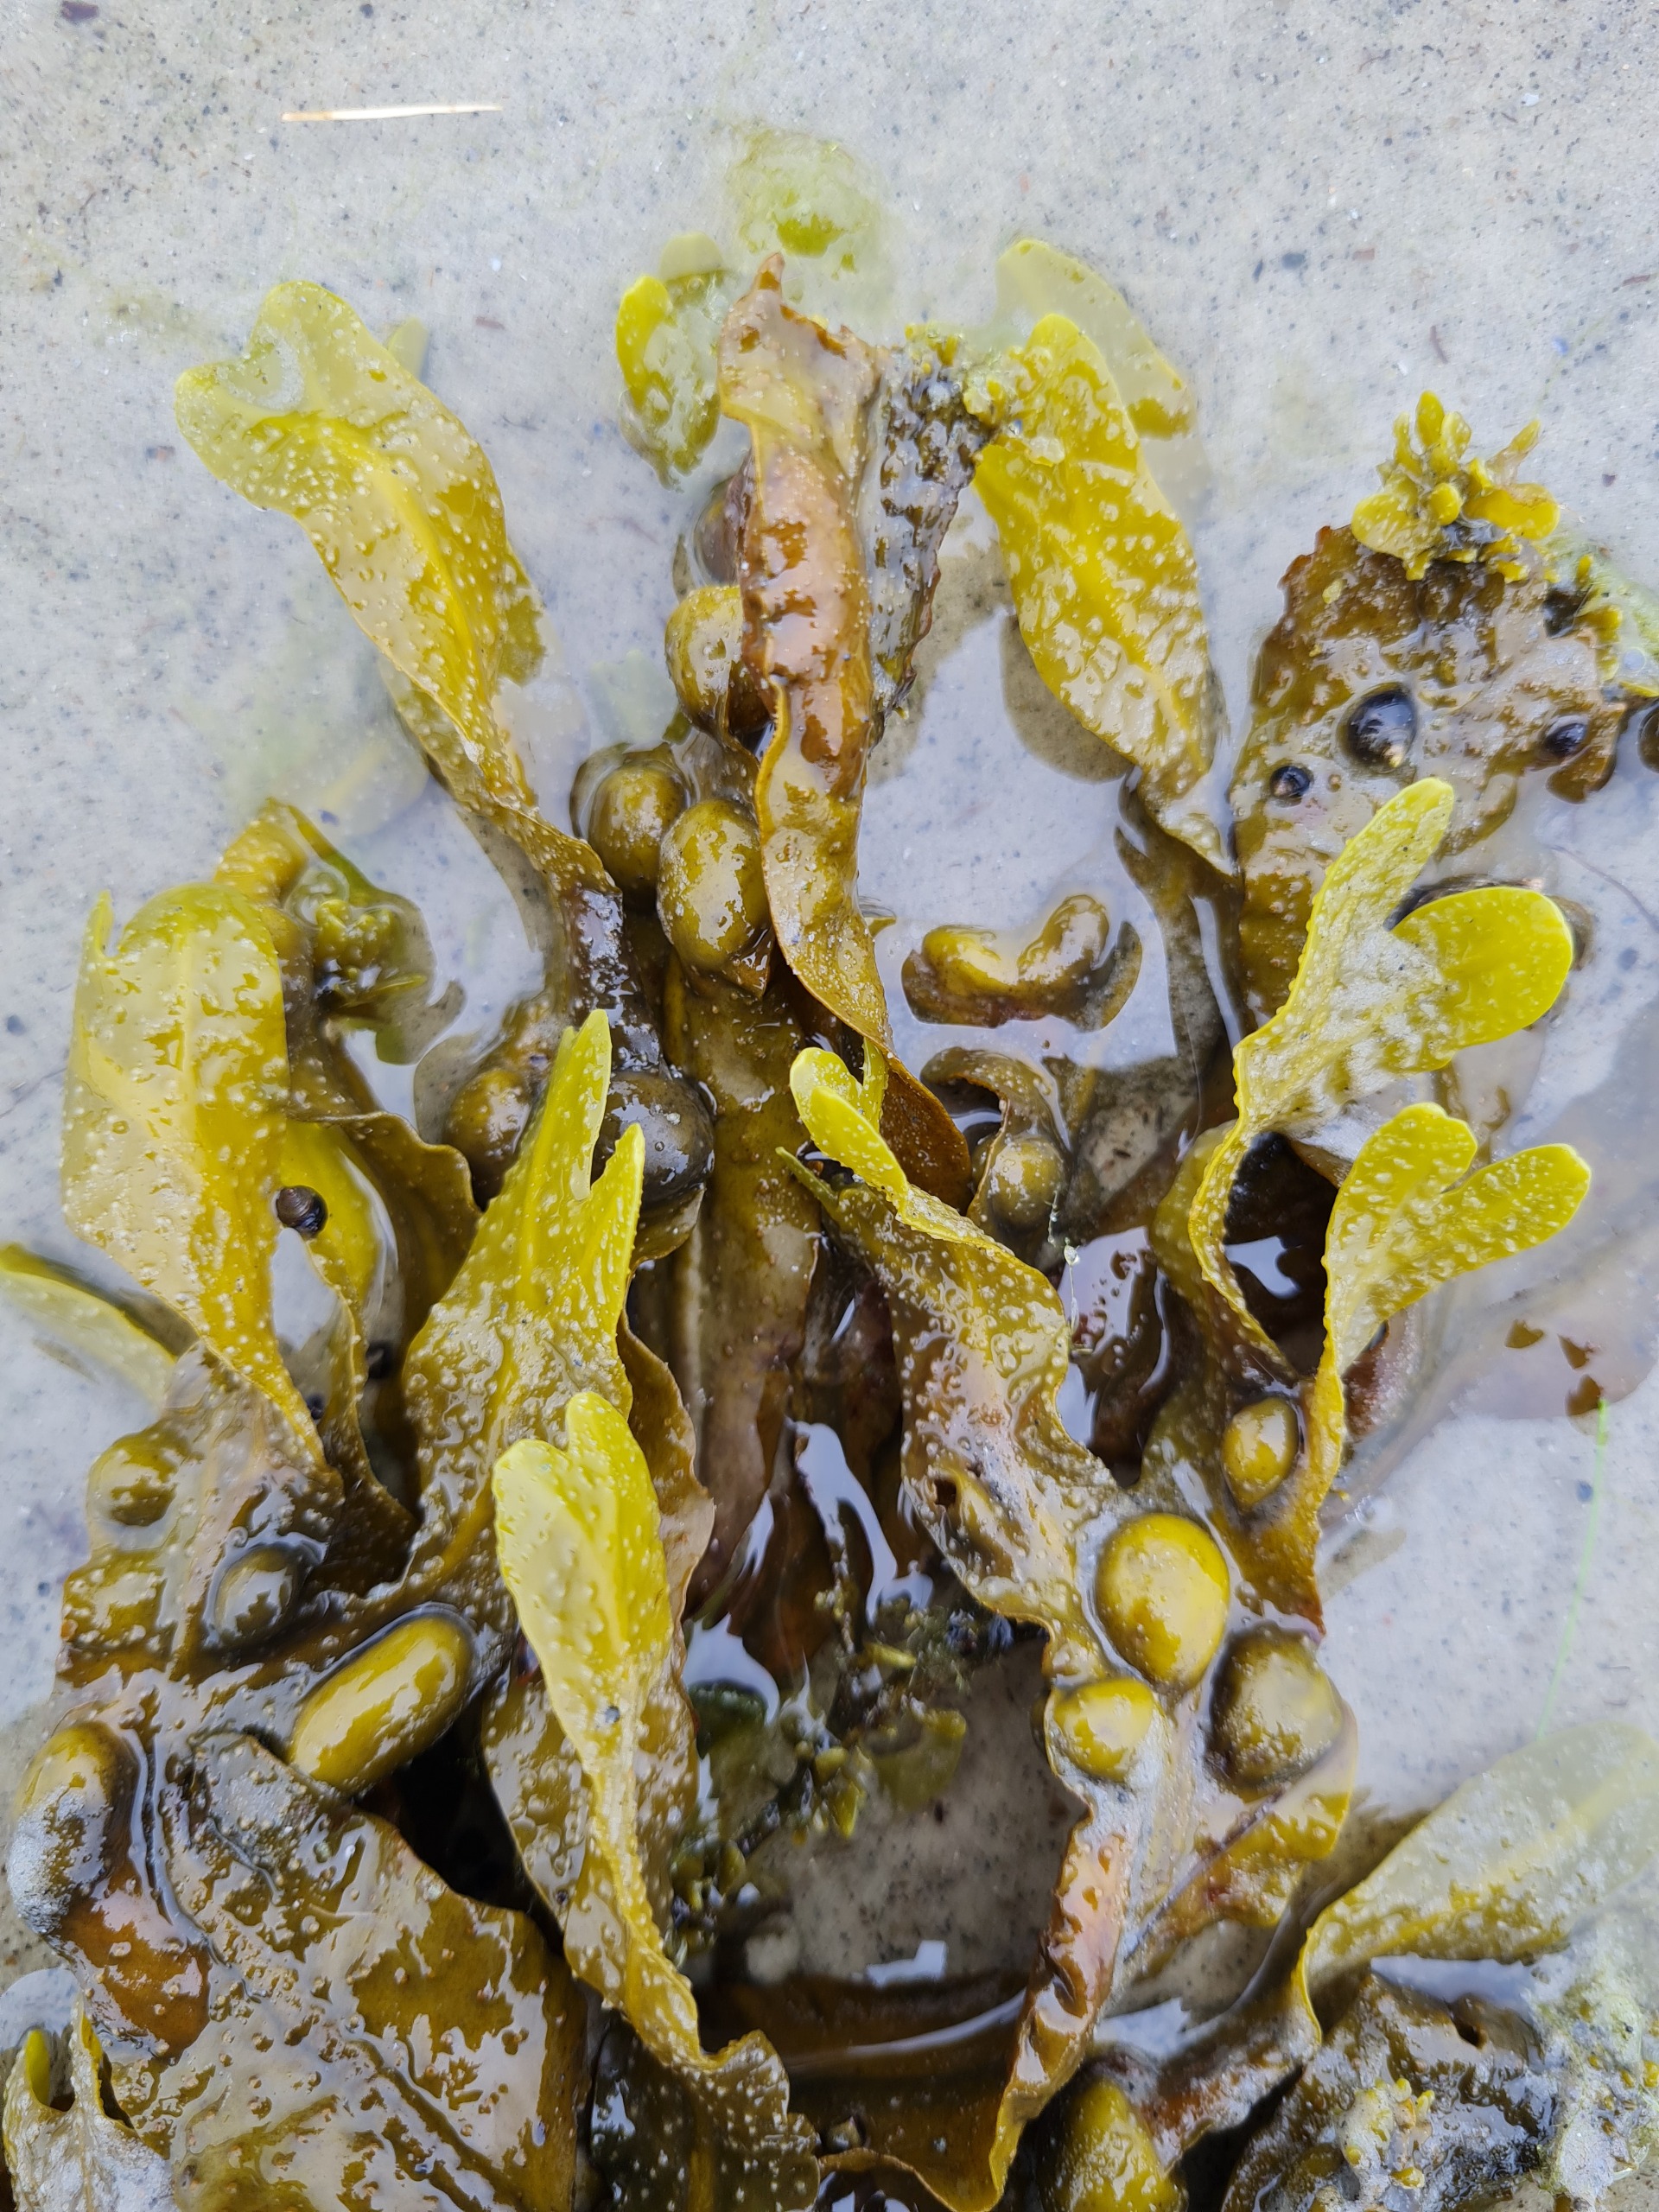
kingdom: Chromista
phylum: Ochrophyta
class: Phaeophyceae
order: Fucales
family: Fucaceae
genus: Fucus
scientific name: Fucus vesiculosus
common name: Blæretang
